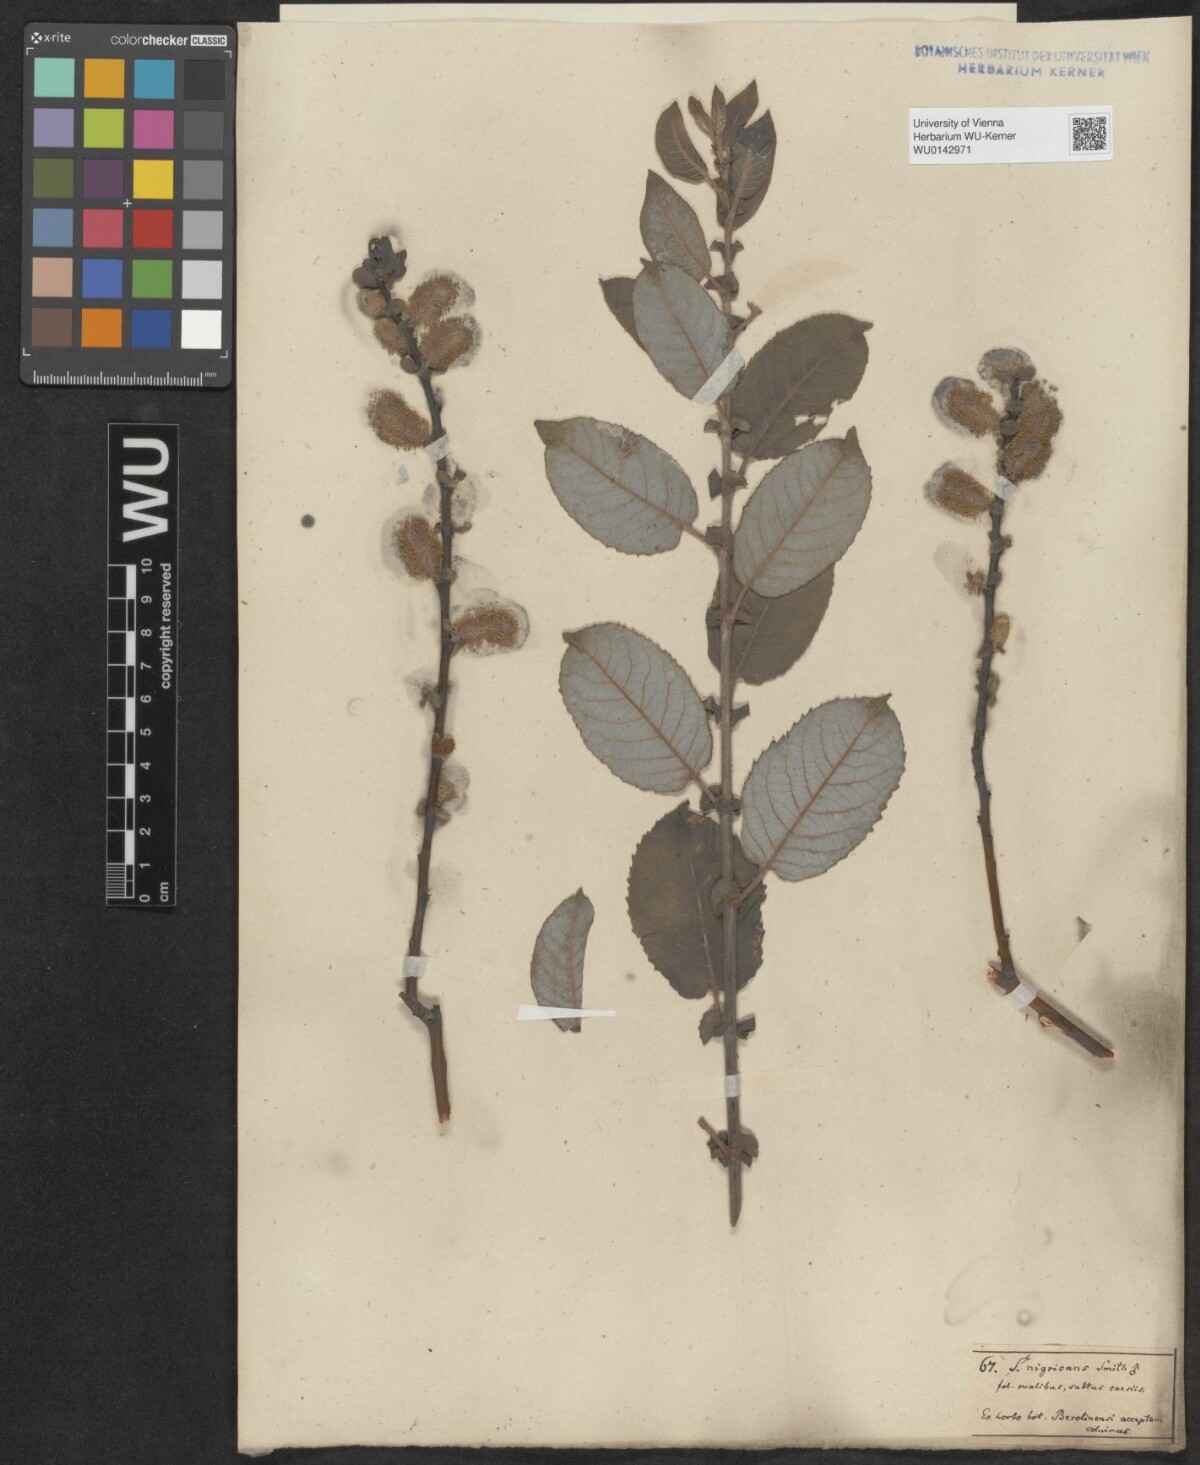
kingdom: Plantae
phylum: Tracheophyta
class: Magnoliopsida
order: Malpighiales
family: Salicaceae
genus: Salix
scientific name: Salix myrsinifolia
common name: Dark-leaved willow
